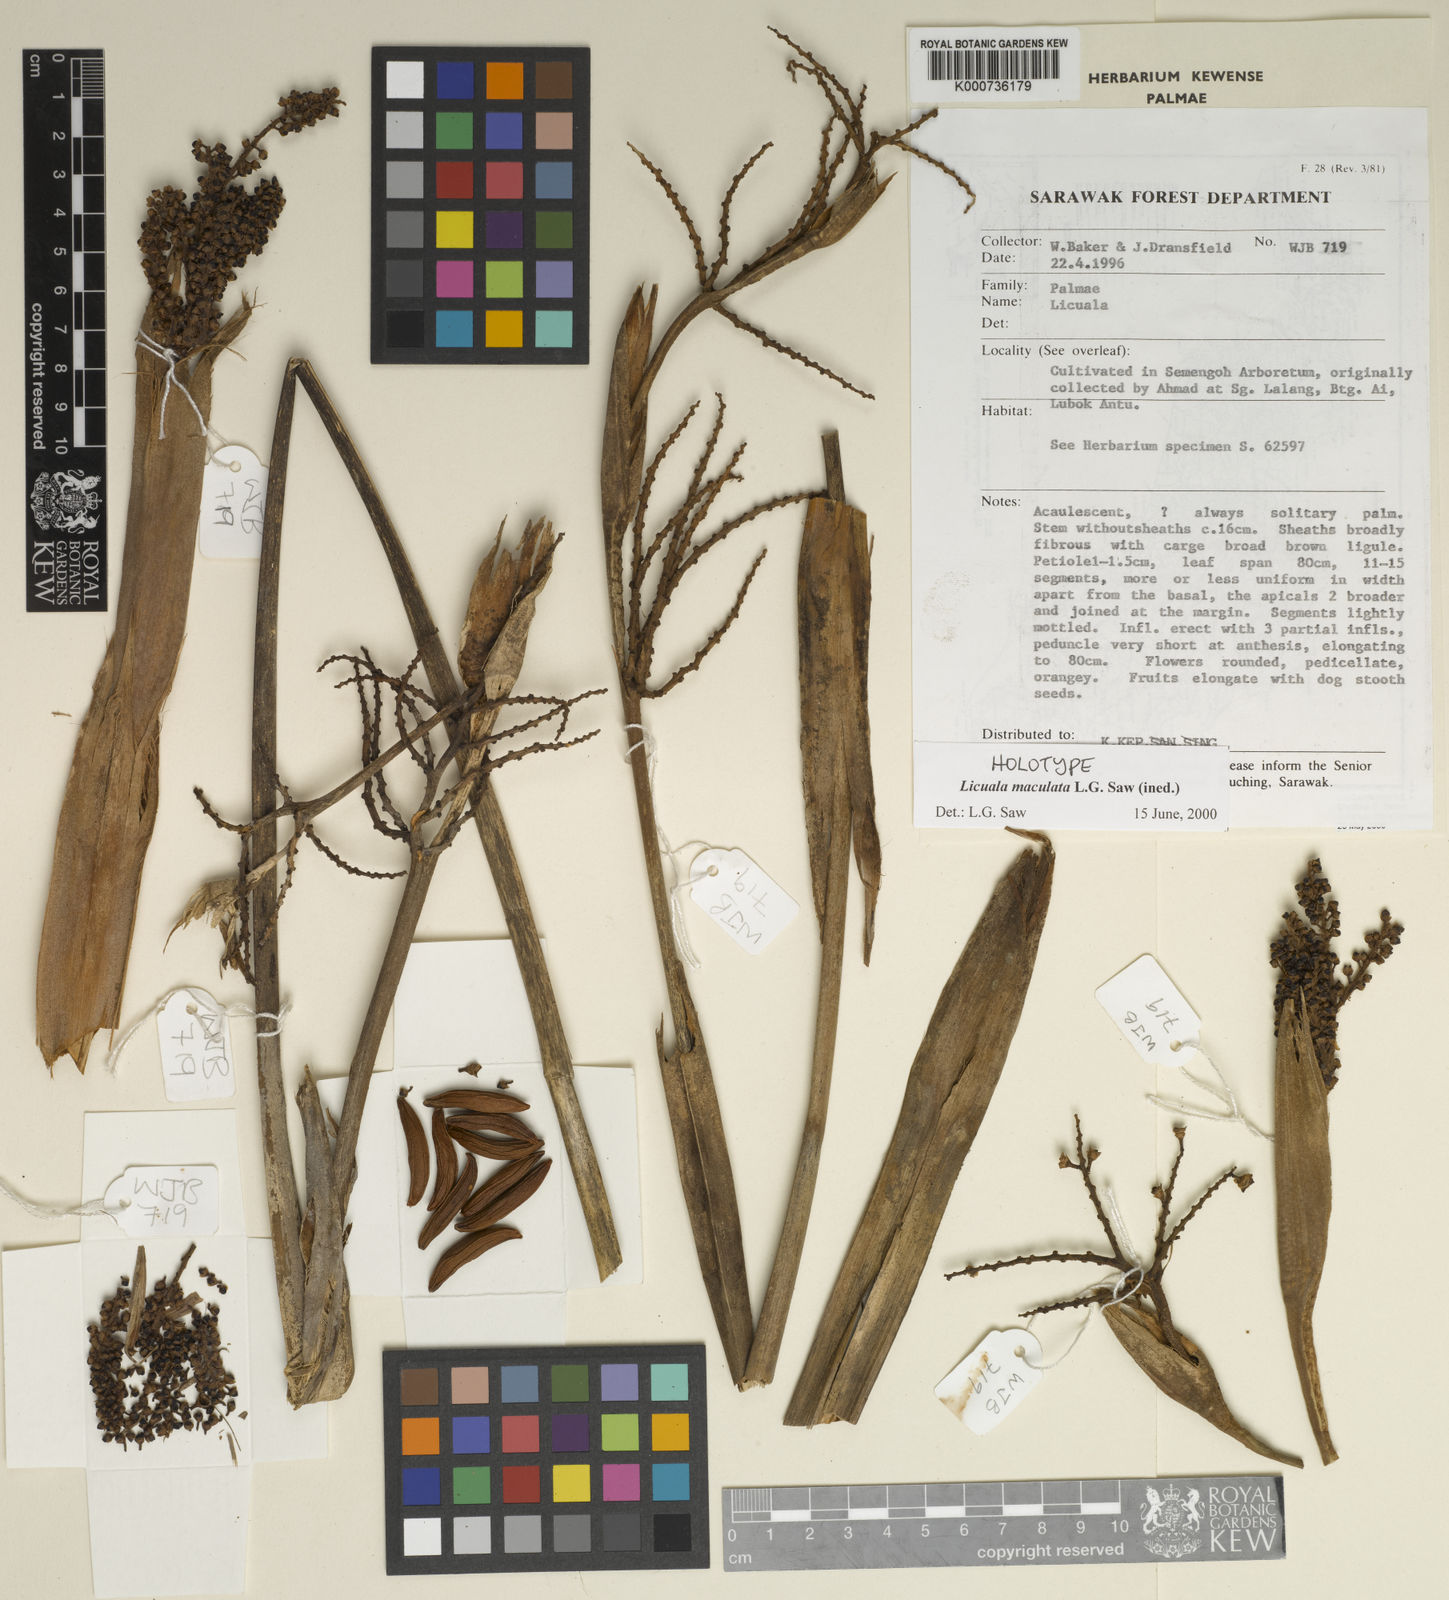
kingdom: Plantae
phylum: Tracheophyta
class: Liliopsida
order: Arecales
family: Arecaceae
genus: Licuala
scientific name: Licuala maculata
